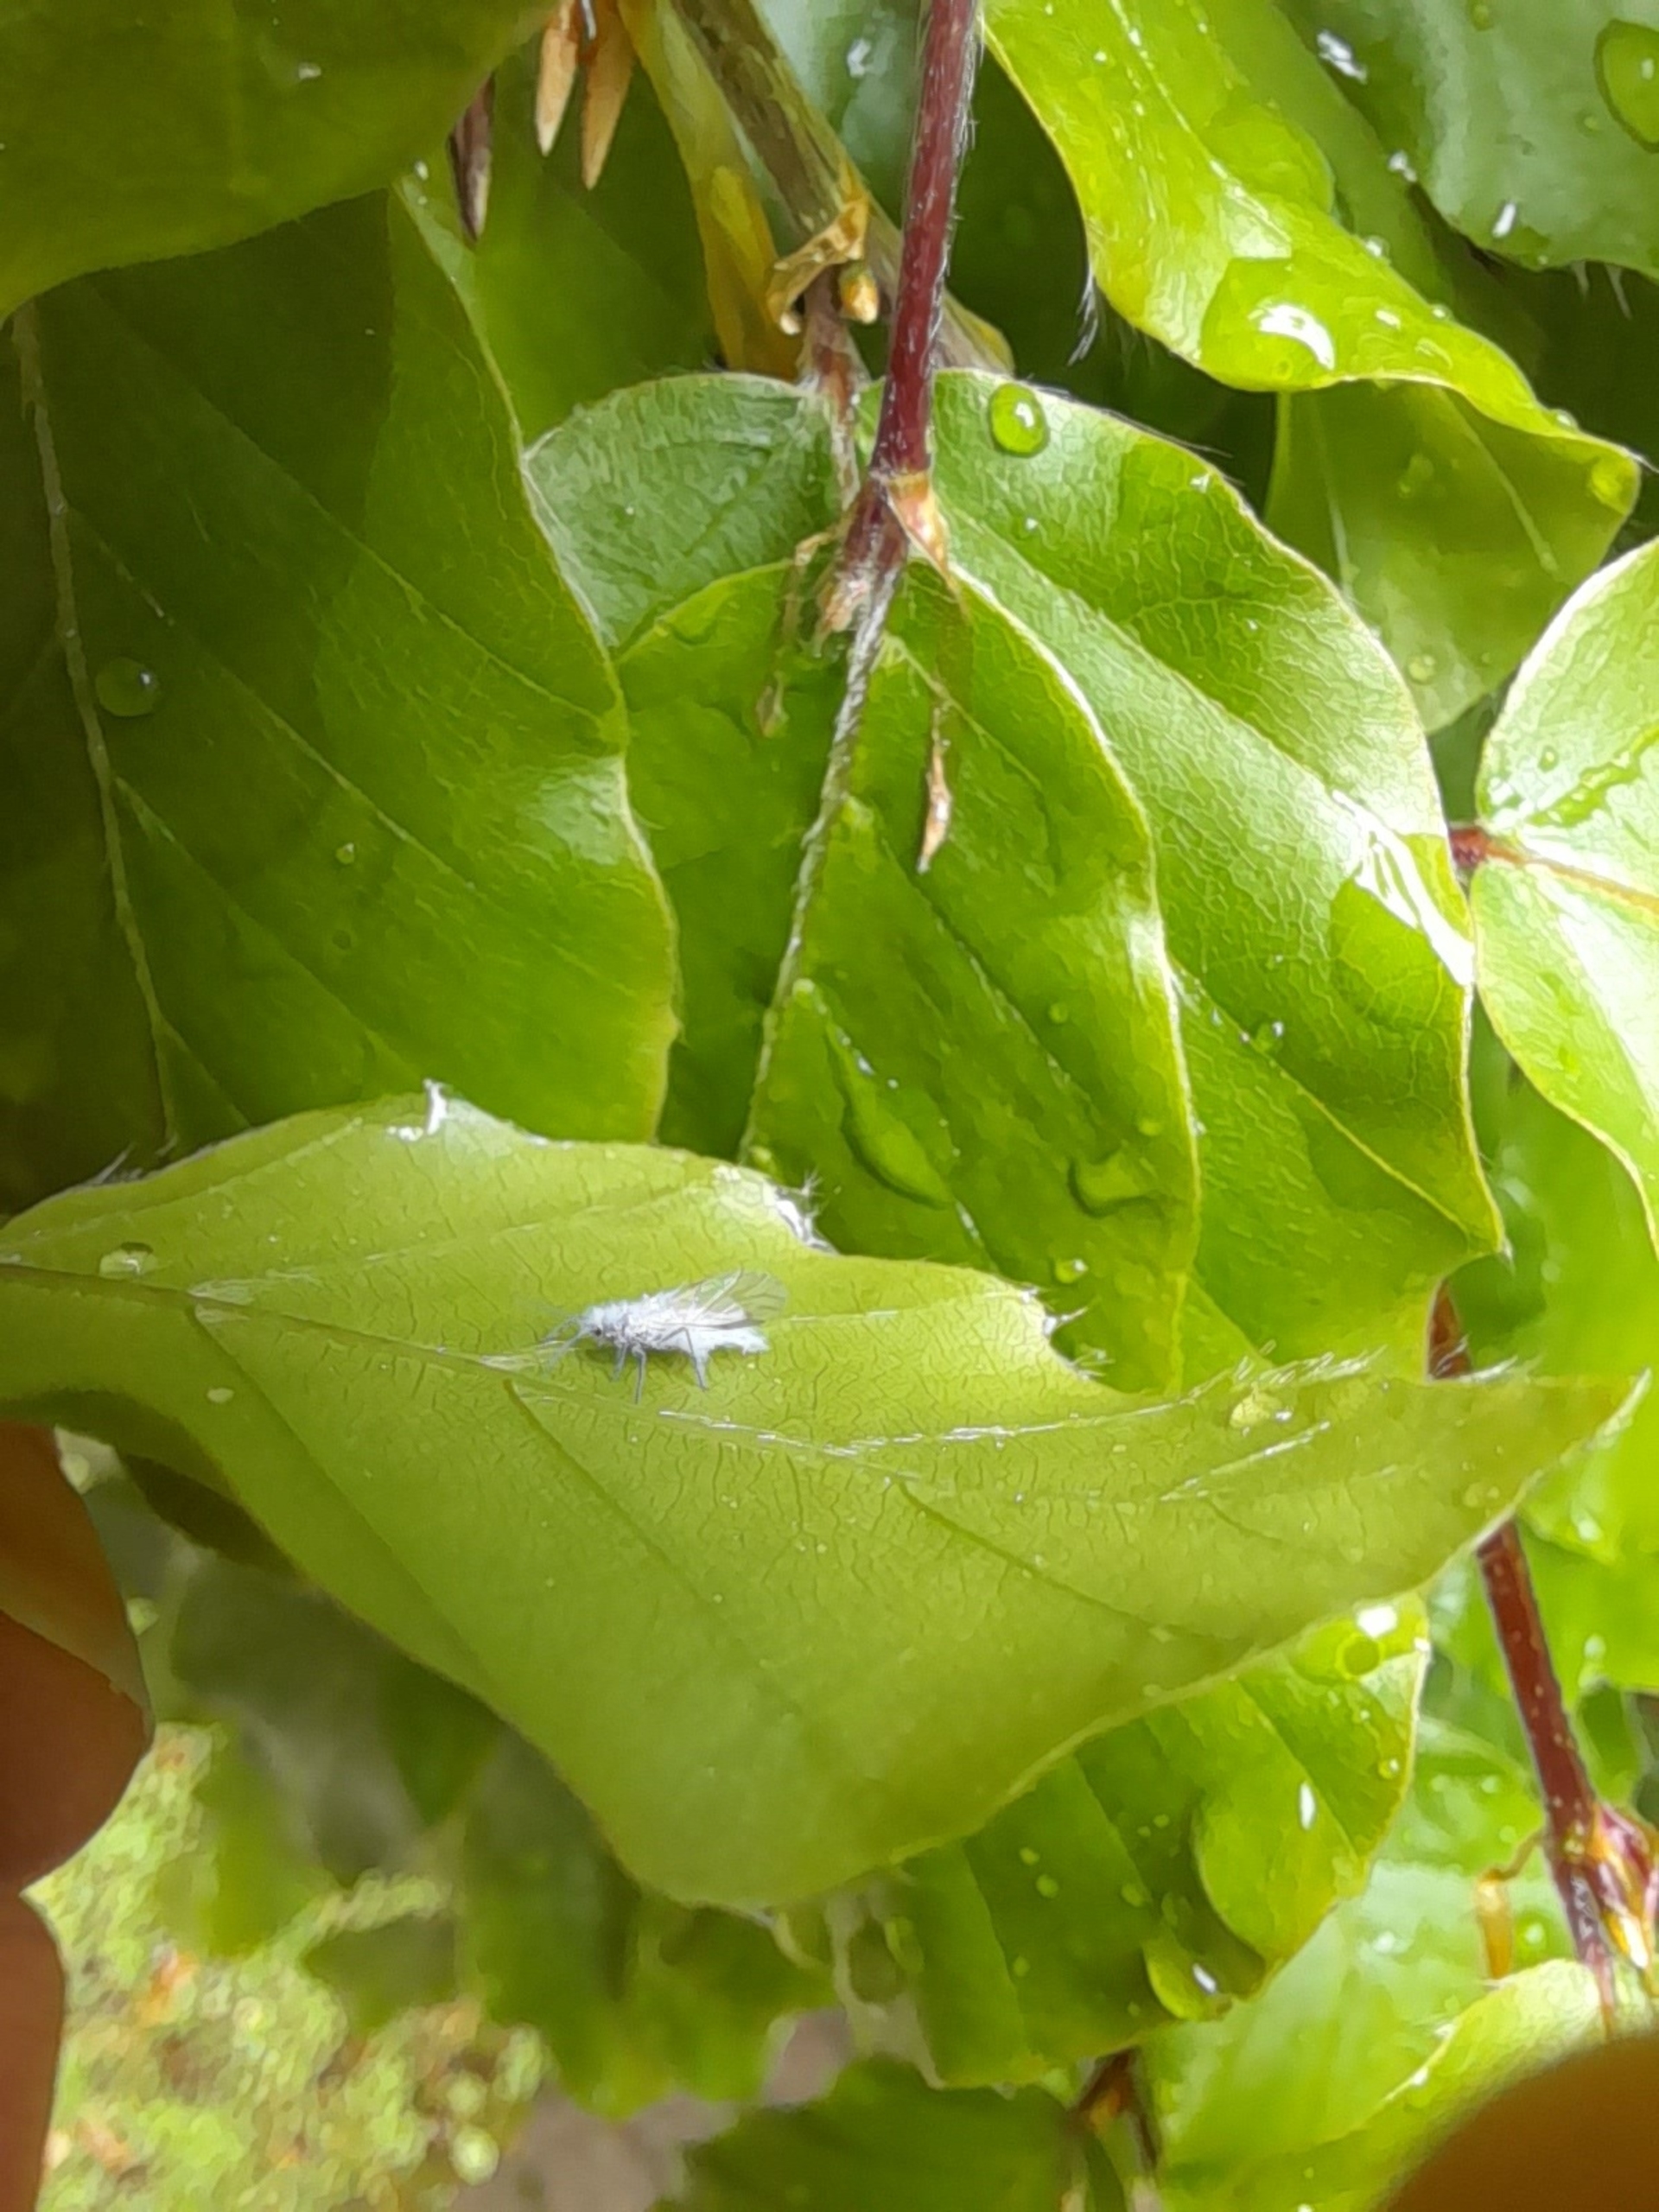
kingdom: Animalia
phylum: Arthropoda
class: Insecta
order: Hemiptera
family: Aphididae
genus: Phyllaphis
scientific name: Phyllaphis fagi
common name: Bøgebladlus
